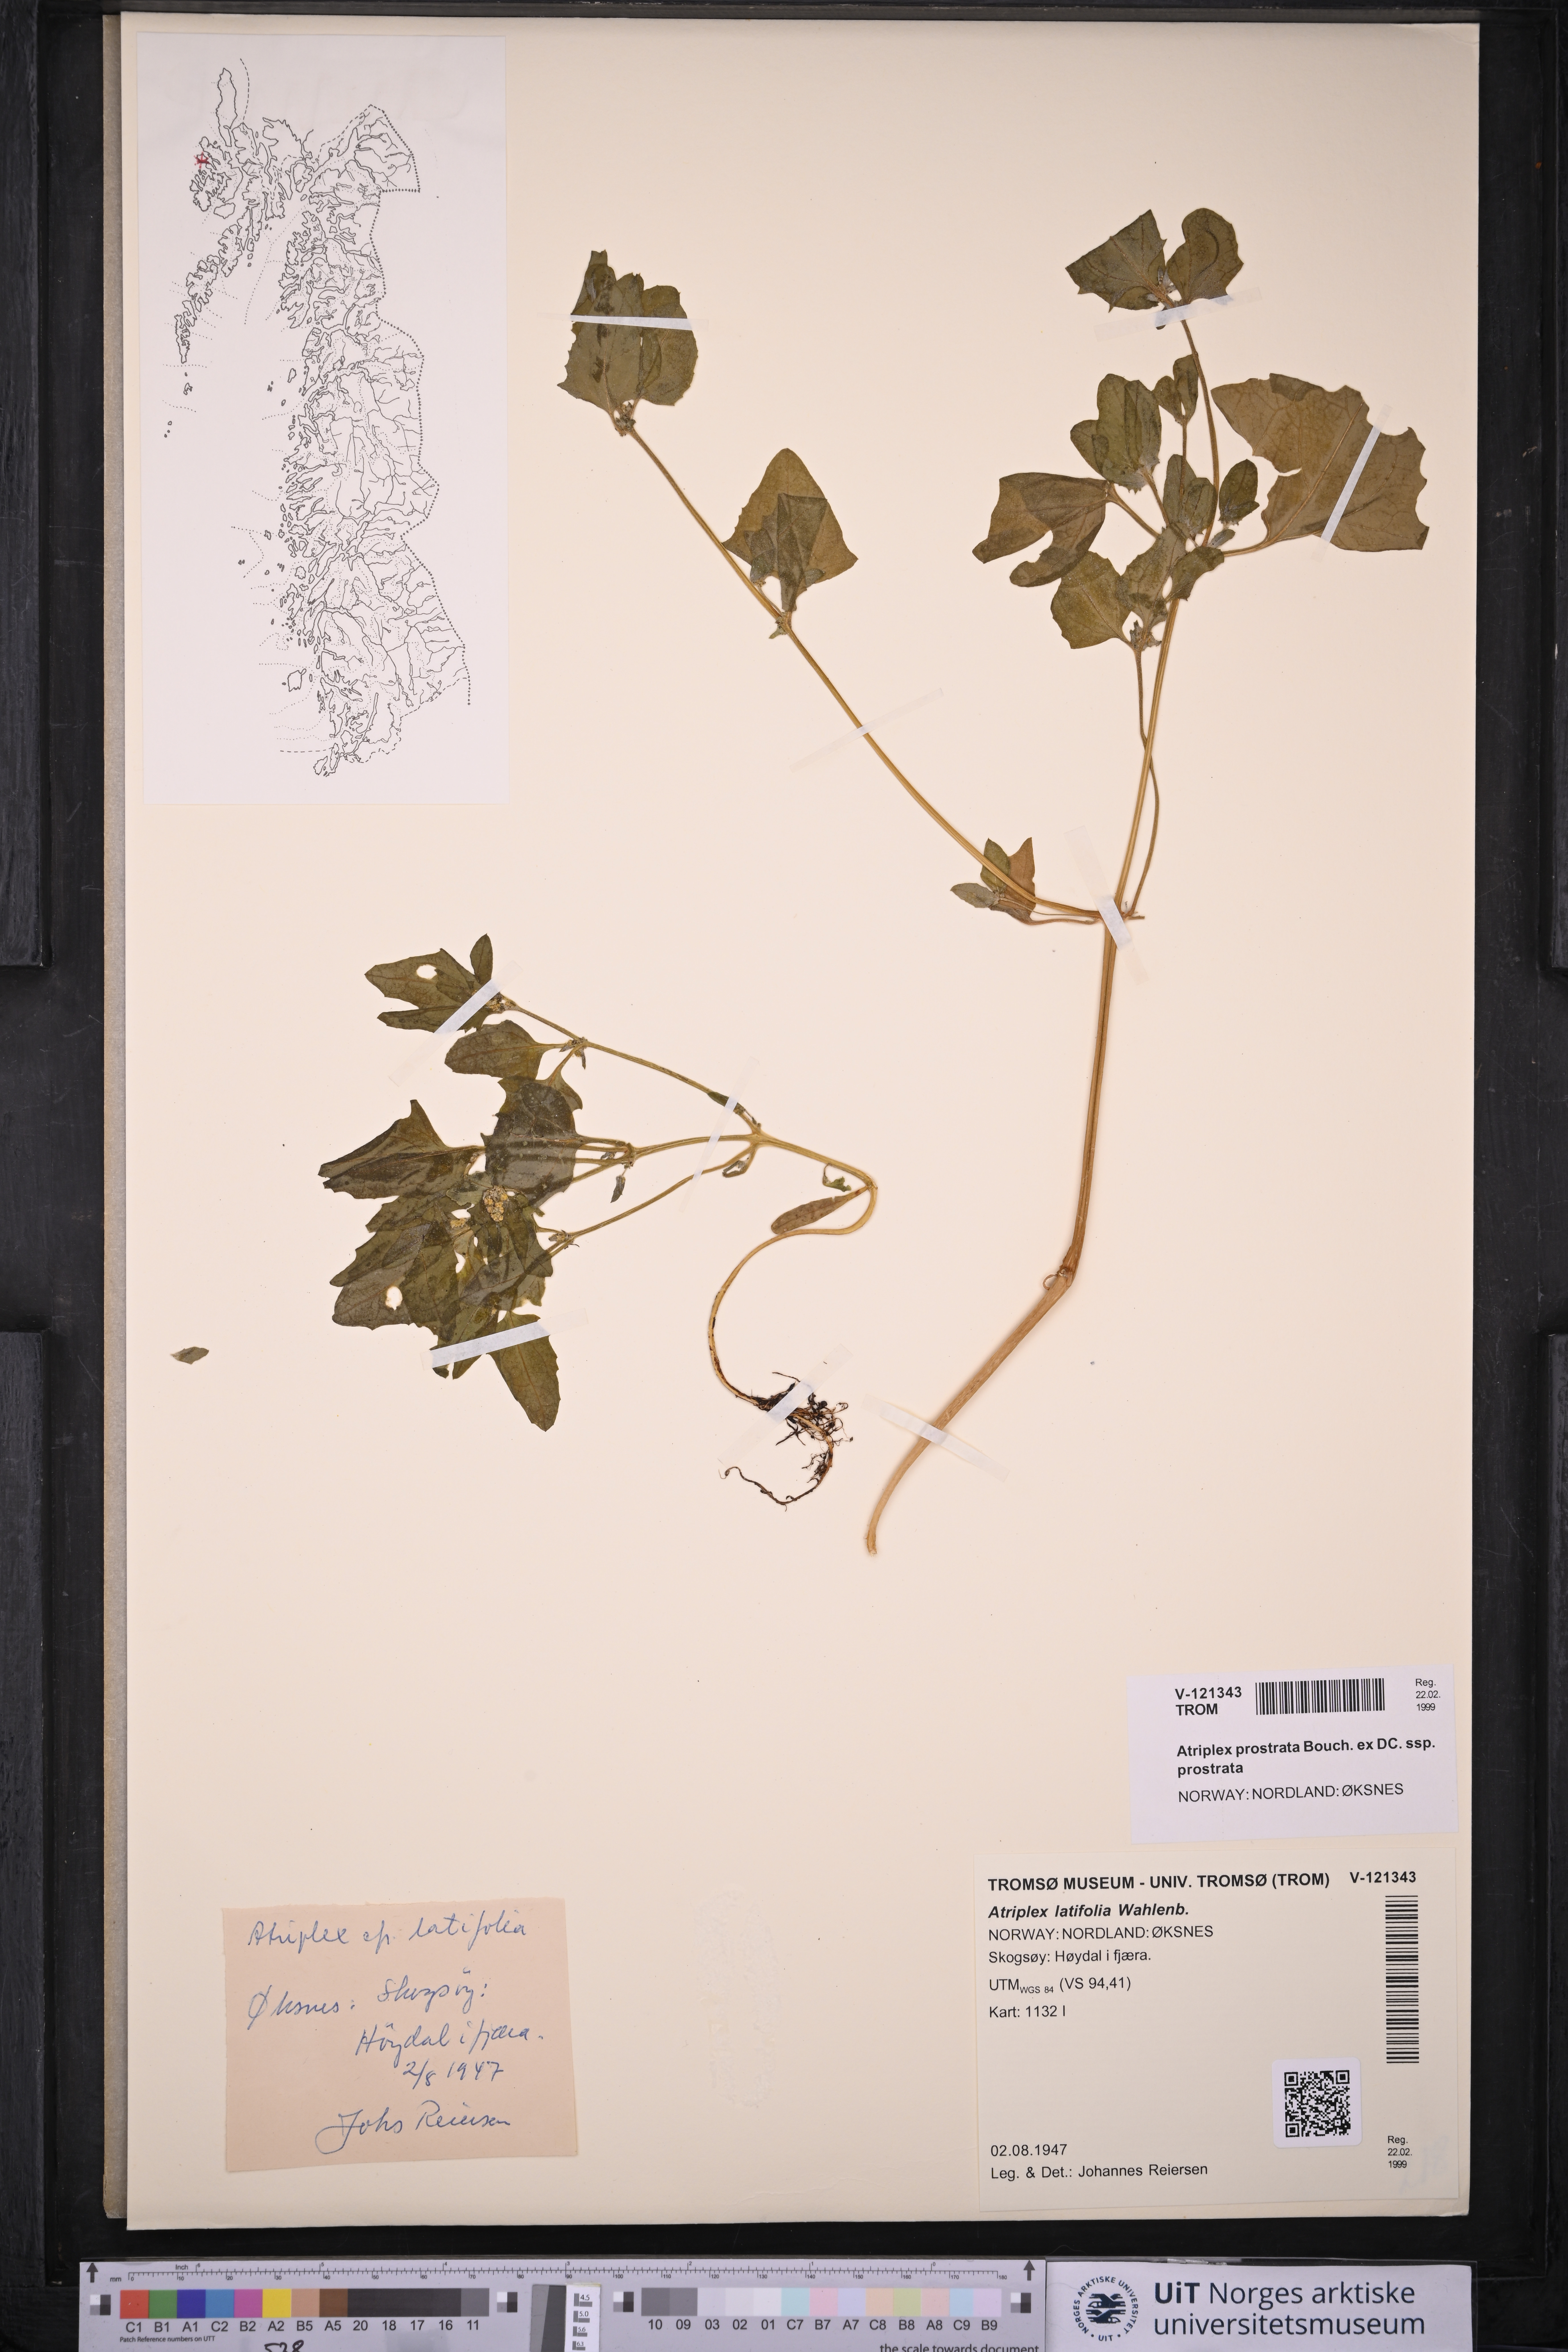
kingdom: Plantae
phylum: Tracheophyta
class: Magnoliopsida
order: Caryophyllales
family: Amaranthaceae
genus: Atriplex
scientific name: Atriplex prostrata
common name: Spear-leaved orache
